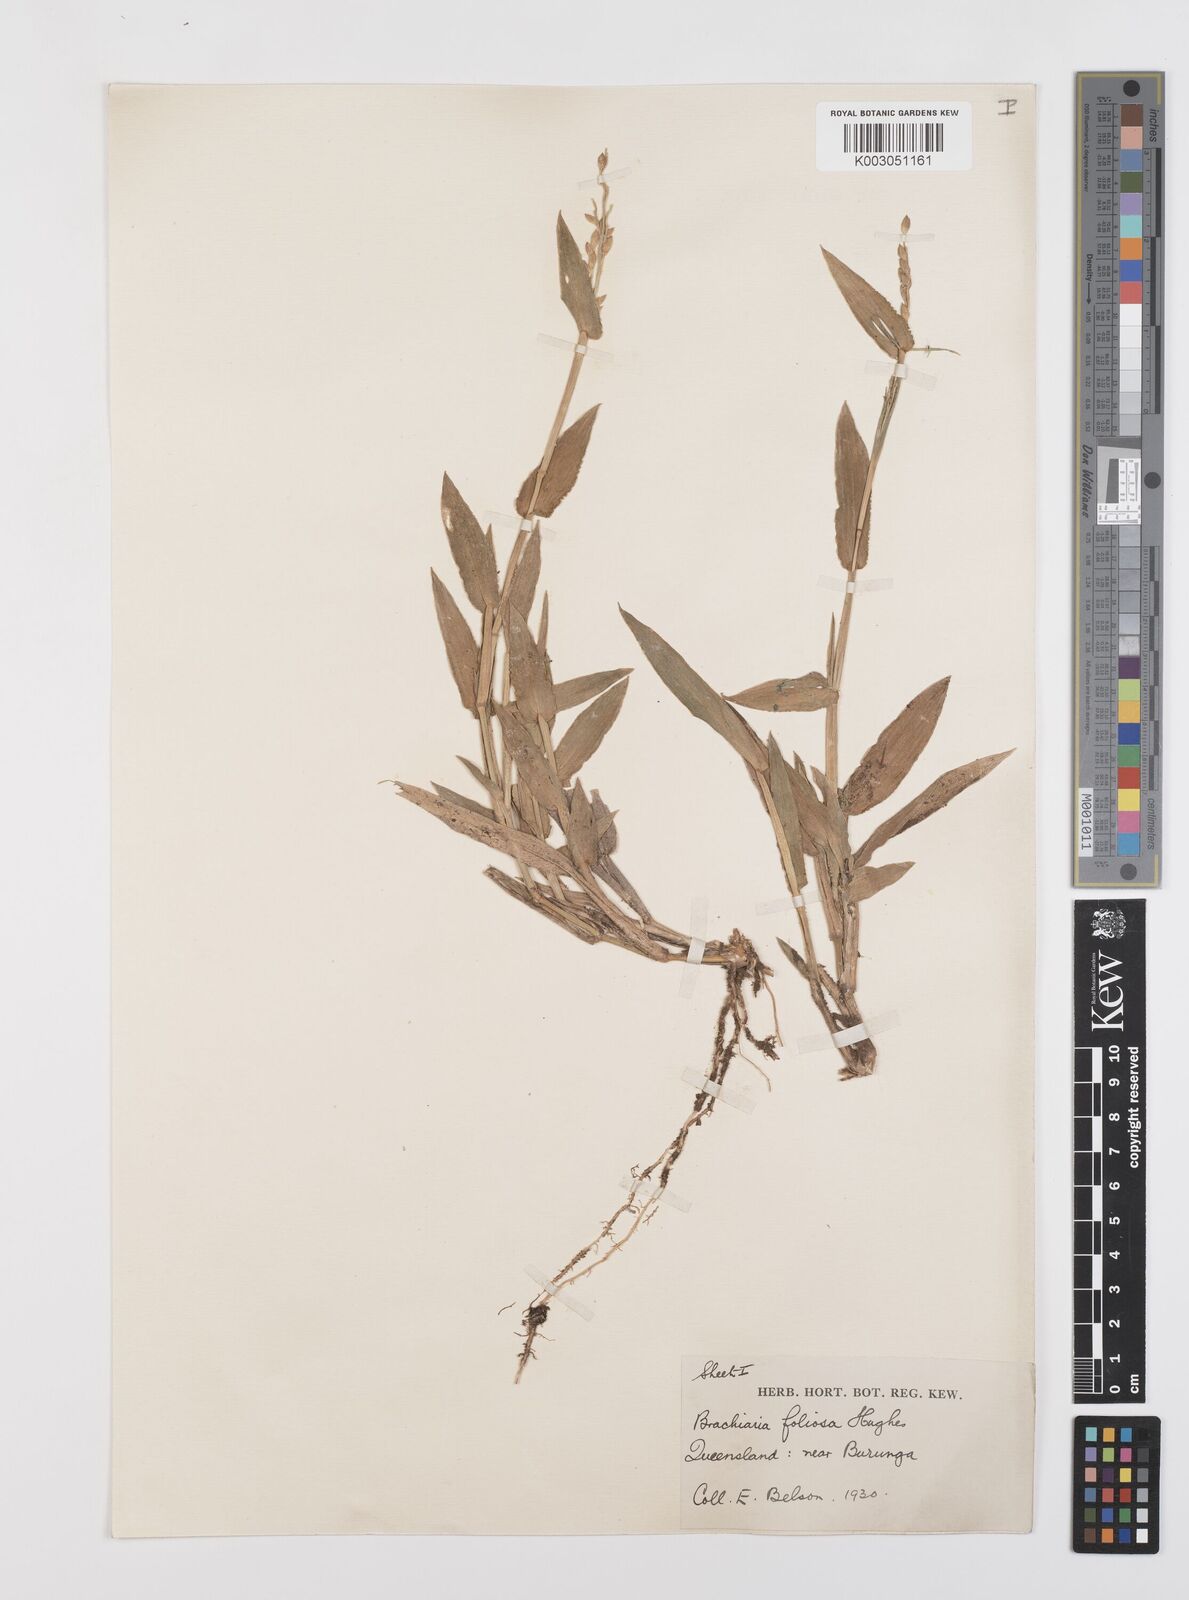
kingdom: Plantae
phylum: Tracheophyta
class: Liliopsida
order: Poales
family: Poaceae
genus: Urochloa
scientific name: Urochloa foliosa
